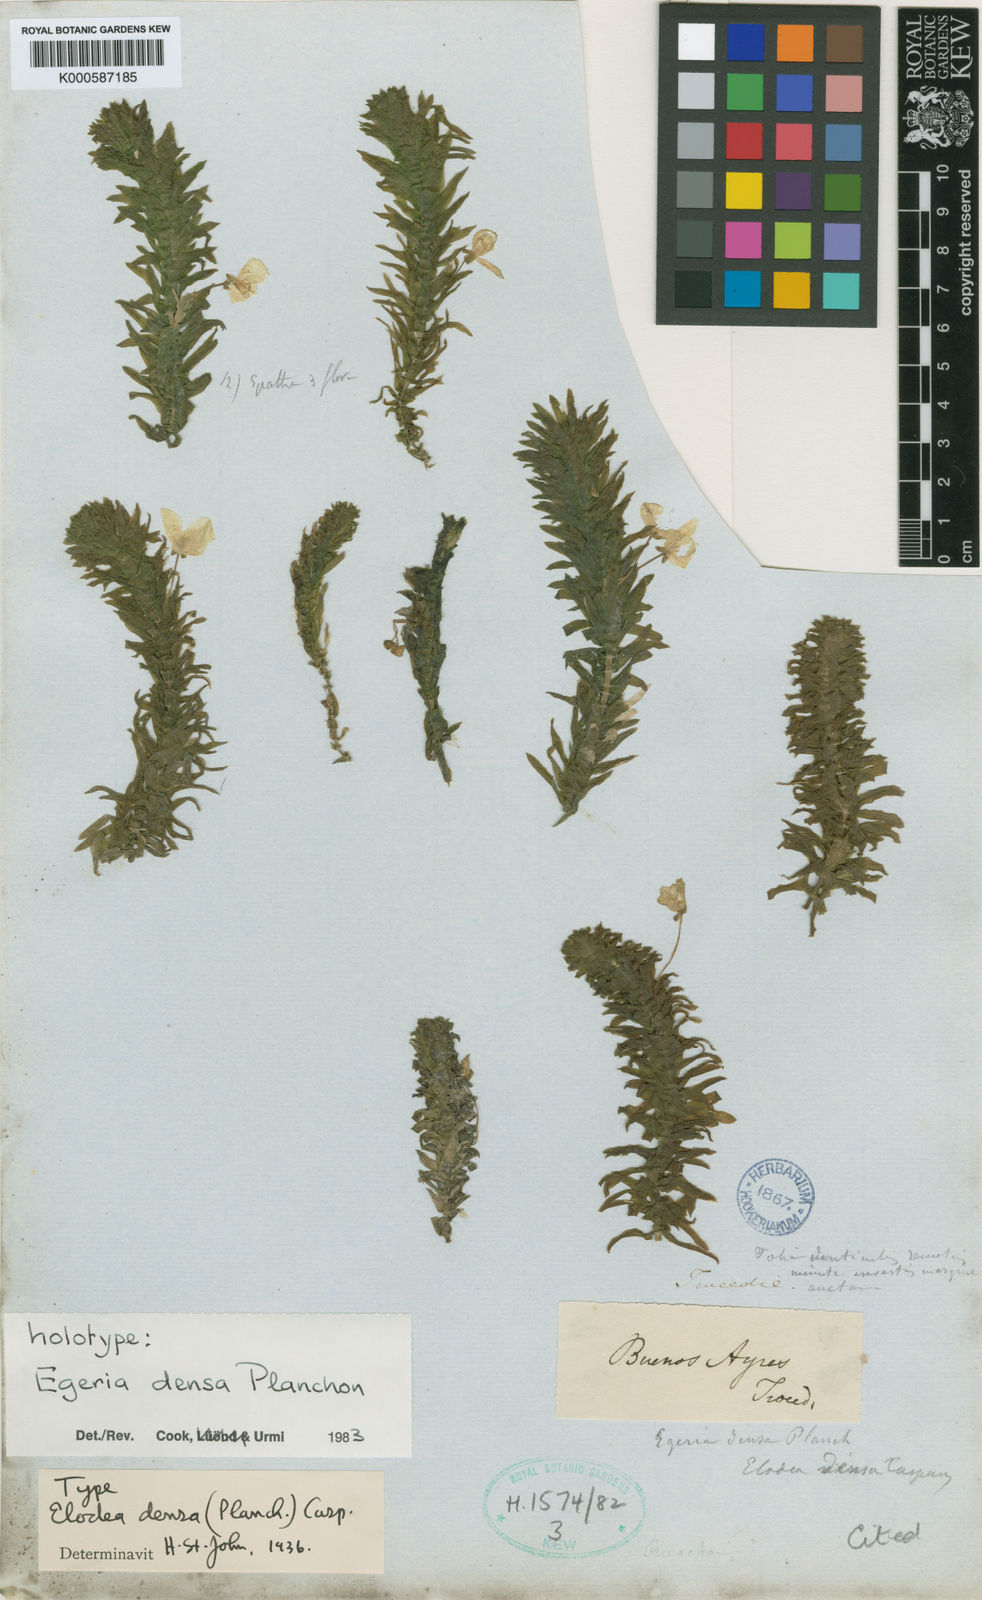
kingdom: Plantae
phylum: Tracheophyta
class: Liliopsida
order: Alismatales
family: Hydrocharitaceae
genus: Elodea
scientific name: Elodea densa
